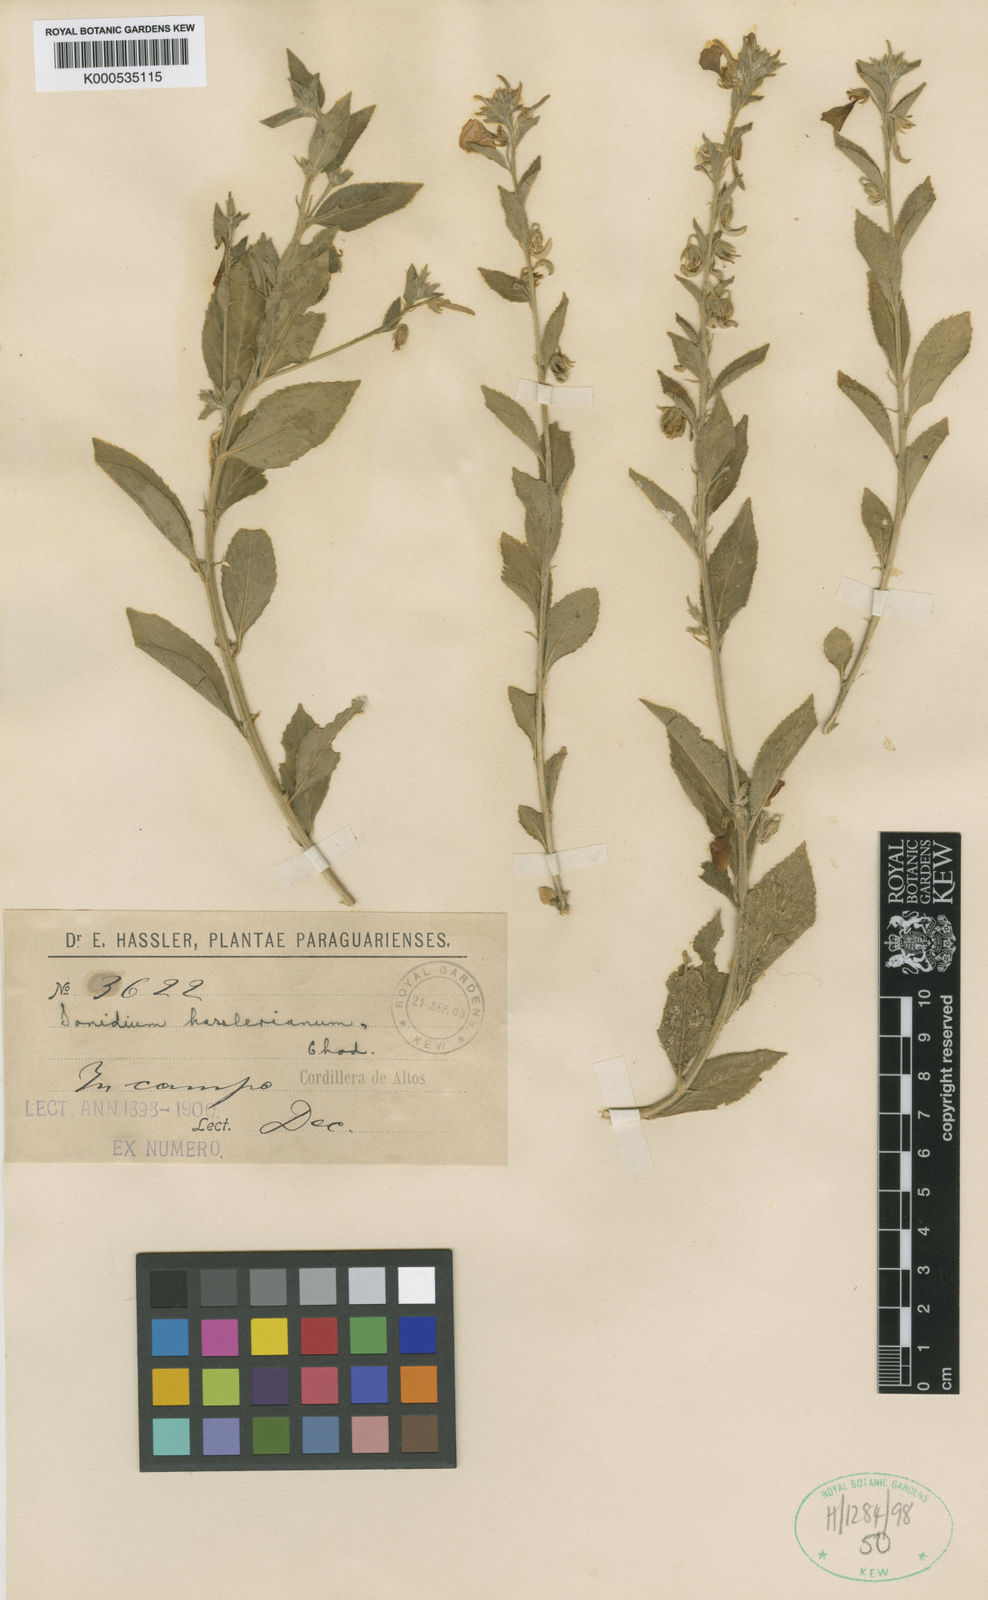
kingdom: Plantae
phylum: Tracheophyta
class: Magnoliopsida
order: Malpighiales
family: Violaceae
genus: Pombalia
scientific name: Pombalia hassleriana
